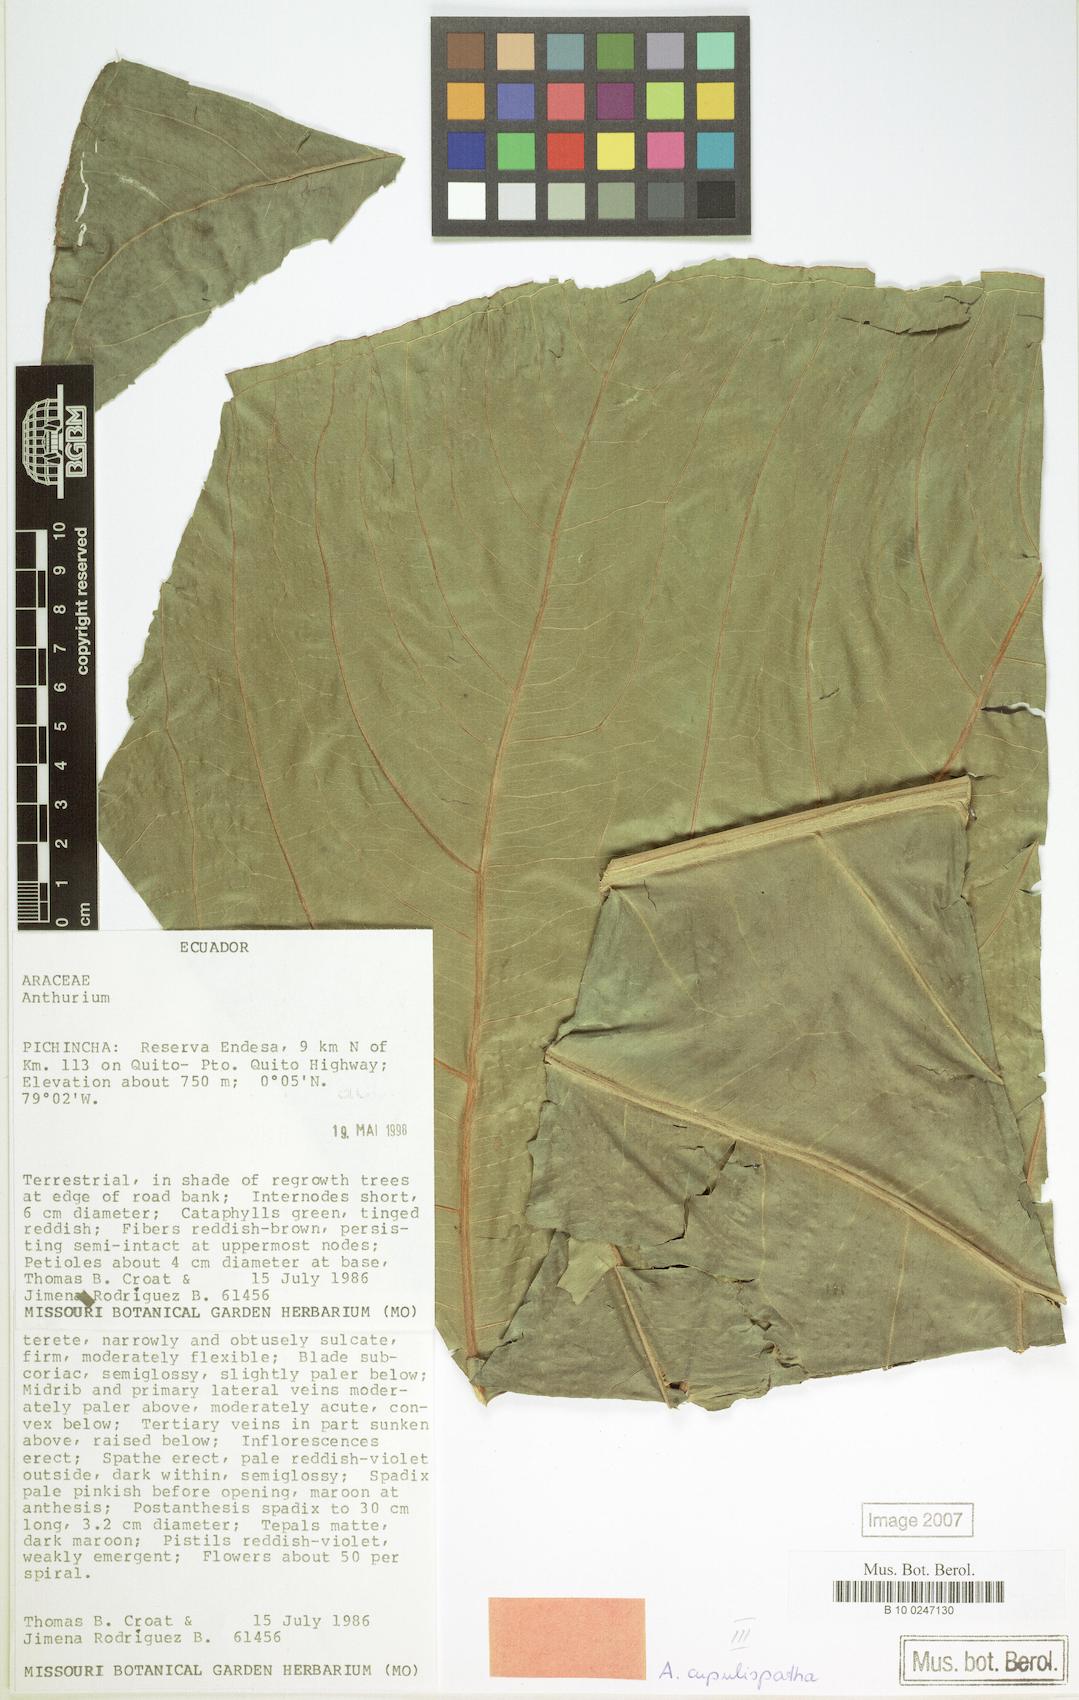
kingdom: Plantae
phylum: Tracheophyta
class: Liliopsida
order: Alismatales
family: Araceae
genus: Anthurium
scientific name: Anthurium cupulispathum
